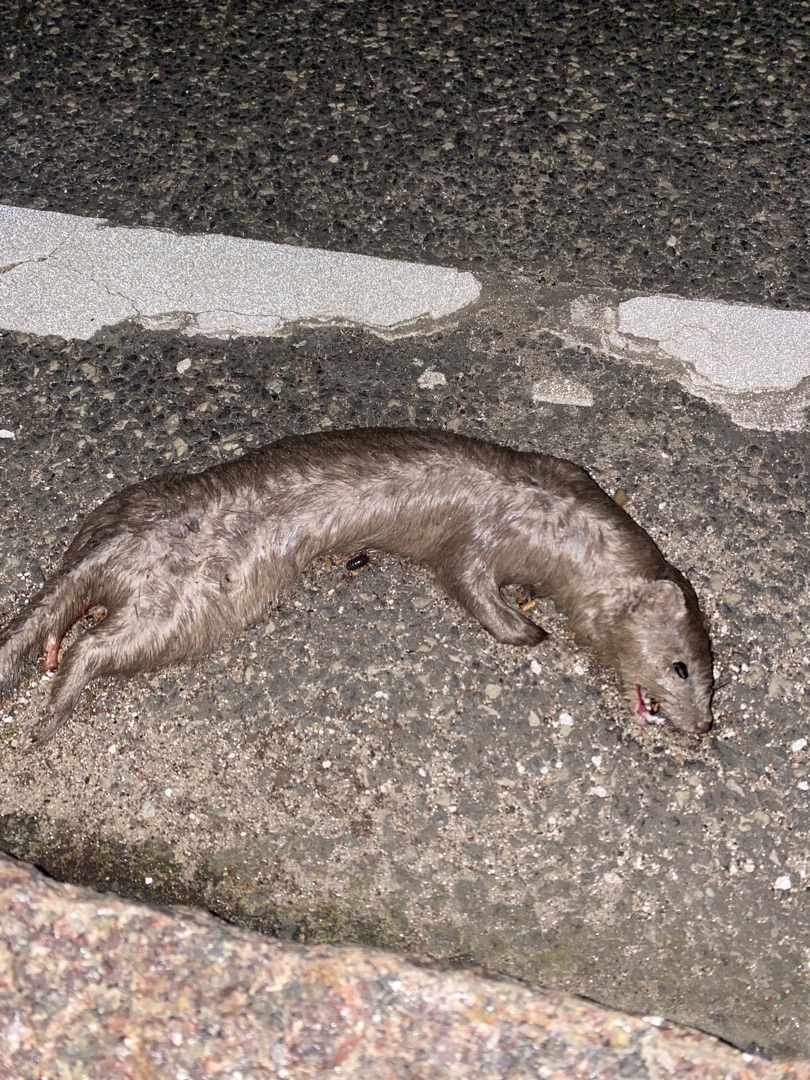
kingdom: Animalia
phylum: Chordata
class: Mammalia
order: Carnivora
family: Mustelidae
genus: Mustela
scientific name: Mustela vison
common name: Mink
